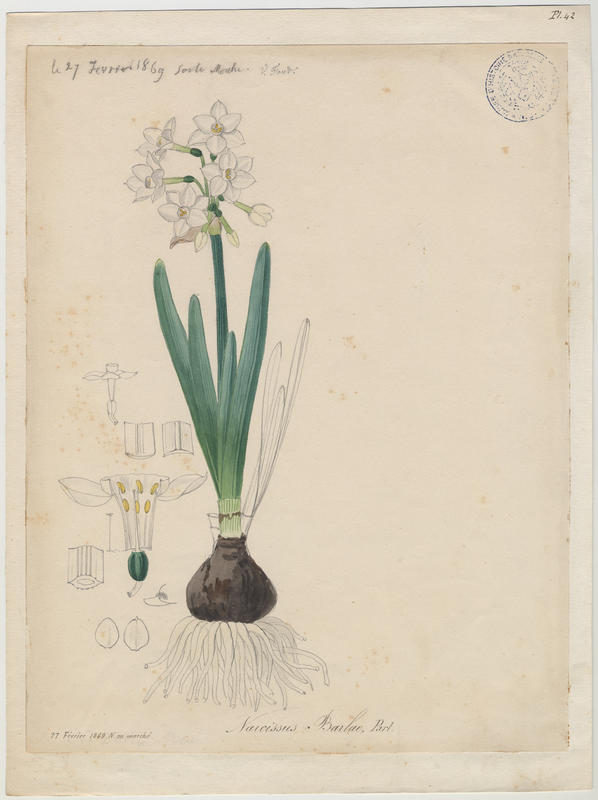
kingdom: Plantae
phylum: Tracheophyta
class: Liliopsida
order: Asparagales
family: Amaryllidaceae
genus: Narcissus
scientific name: Narcissus papyraceus
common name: Paper-white daffodil
